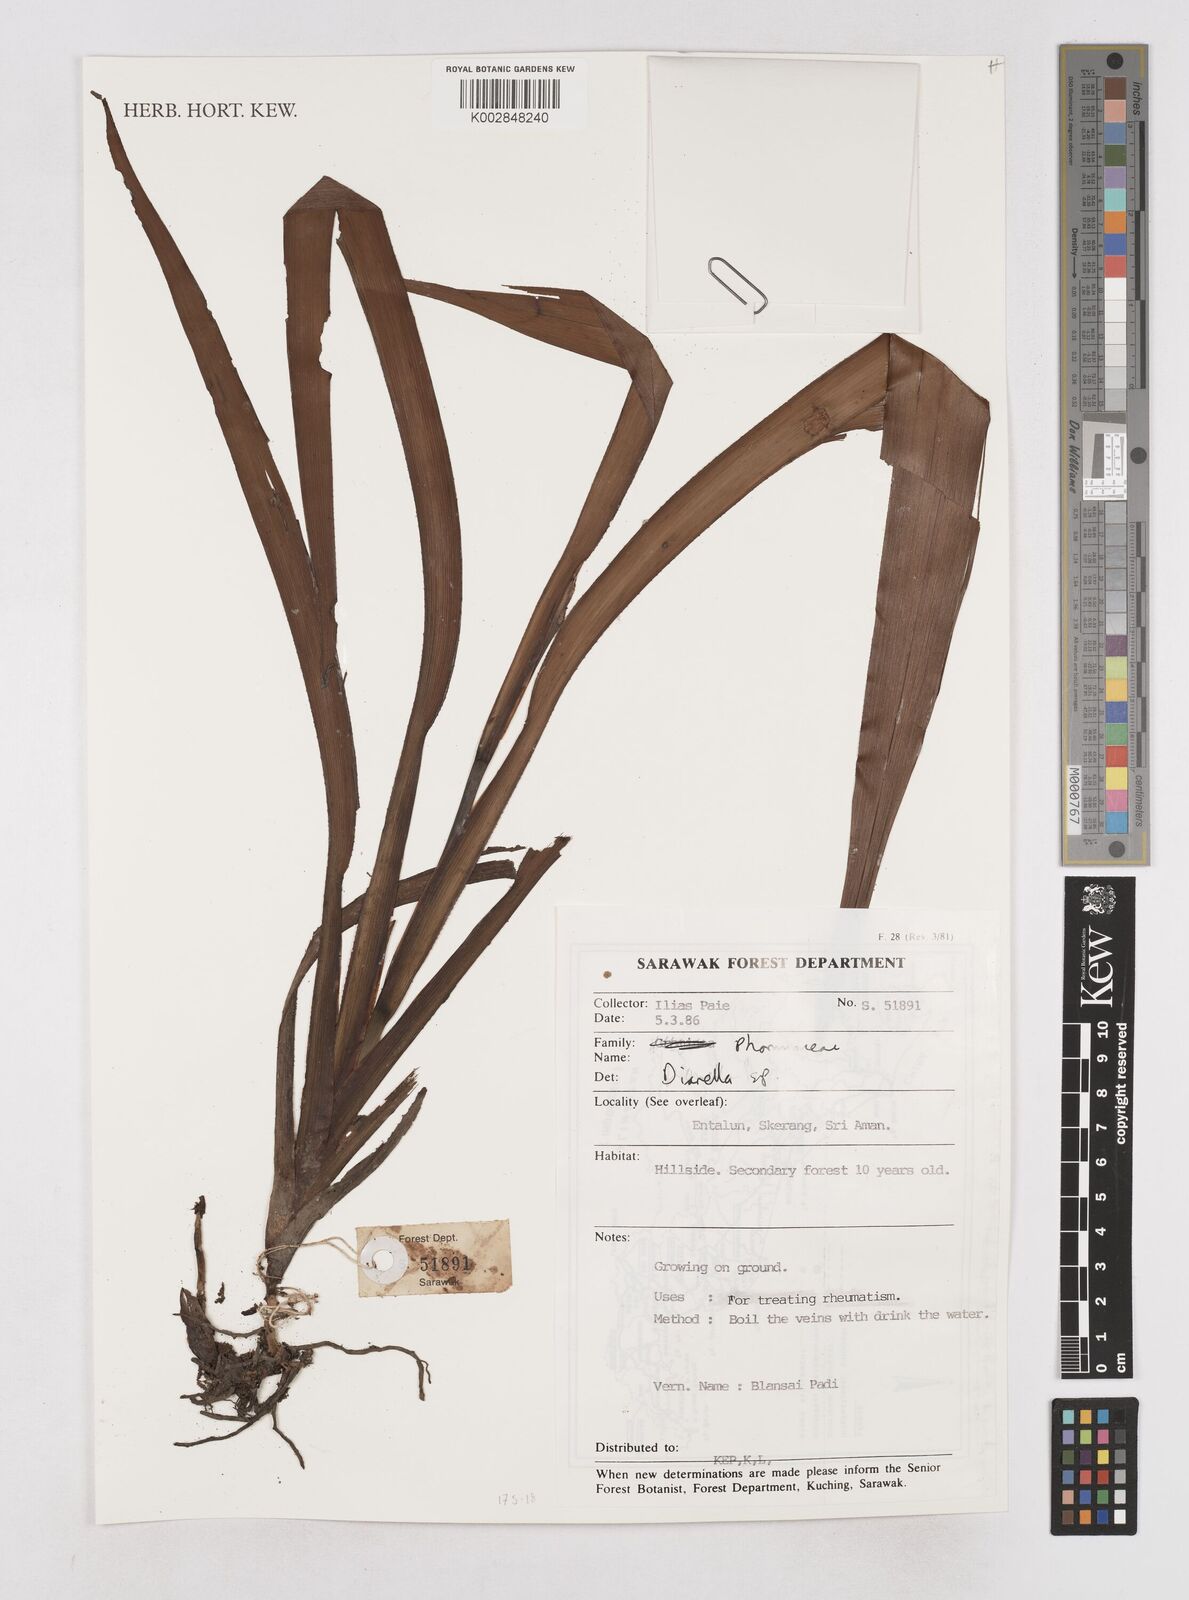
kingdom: Plantae
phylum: Tracheophyta
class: Liliopsida
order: Asparagales
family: Asphodelaceae
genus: Dianella
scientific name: Dianella
